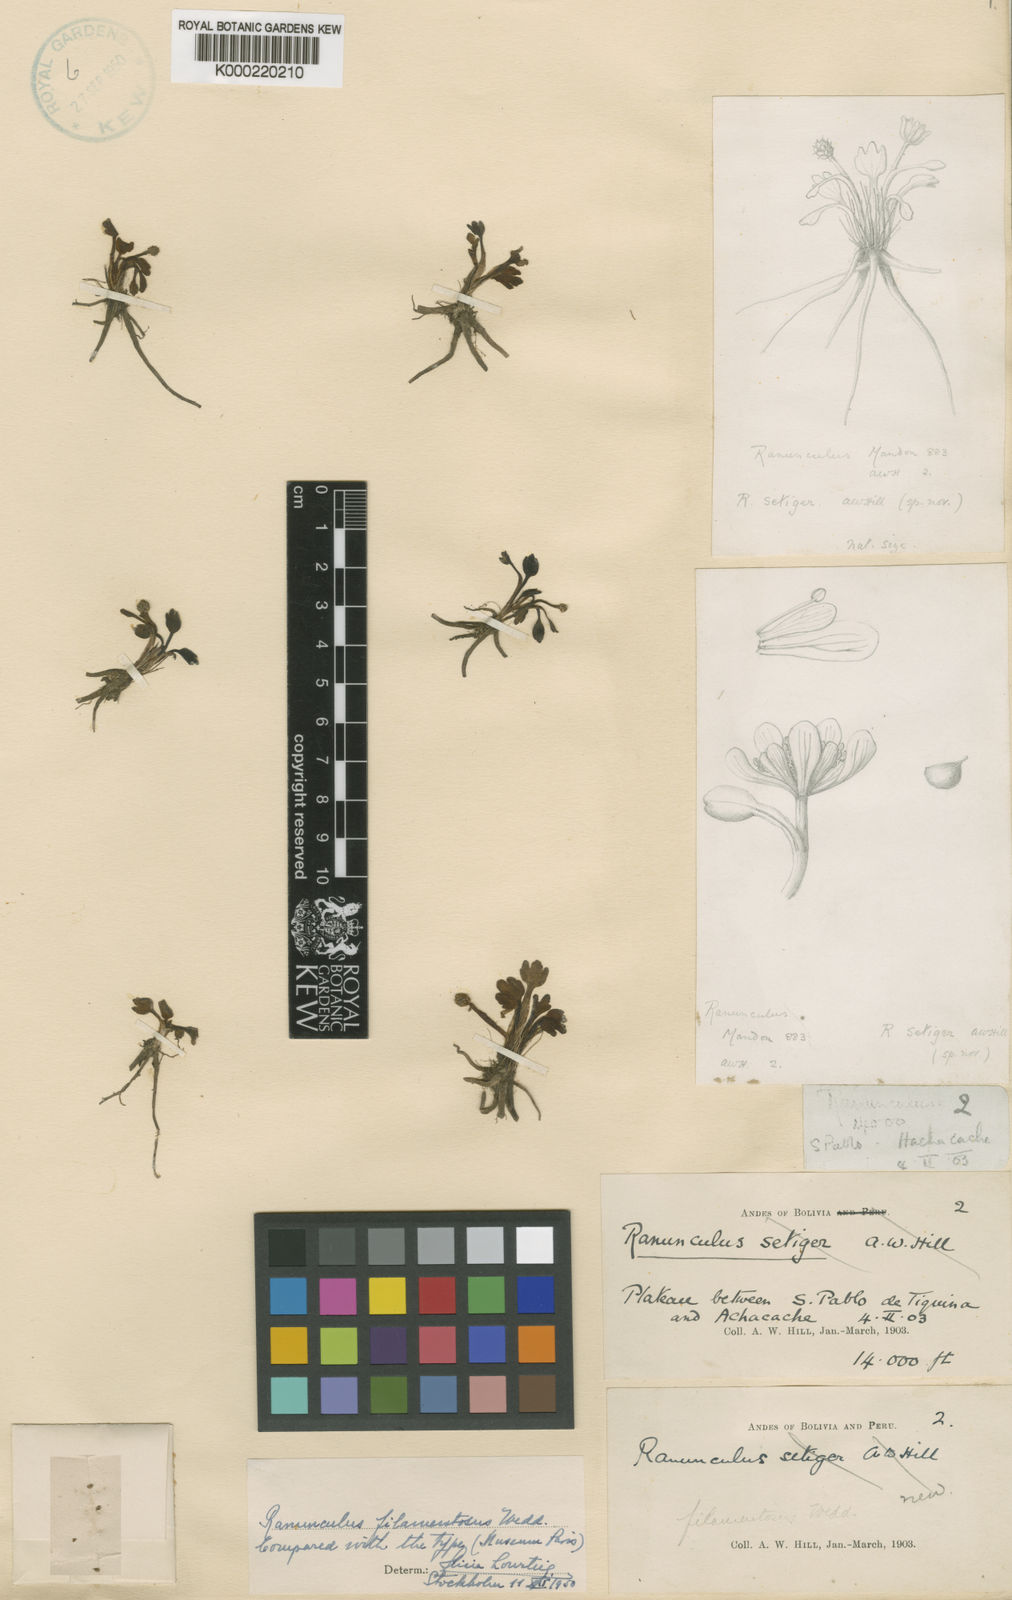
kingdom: Plantae
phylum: Tracheophyta
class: Magnoliopsida
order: Ranunculales
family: Ranunculaceae
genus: Ranunculus
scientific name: Ranunculus filamentosus
